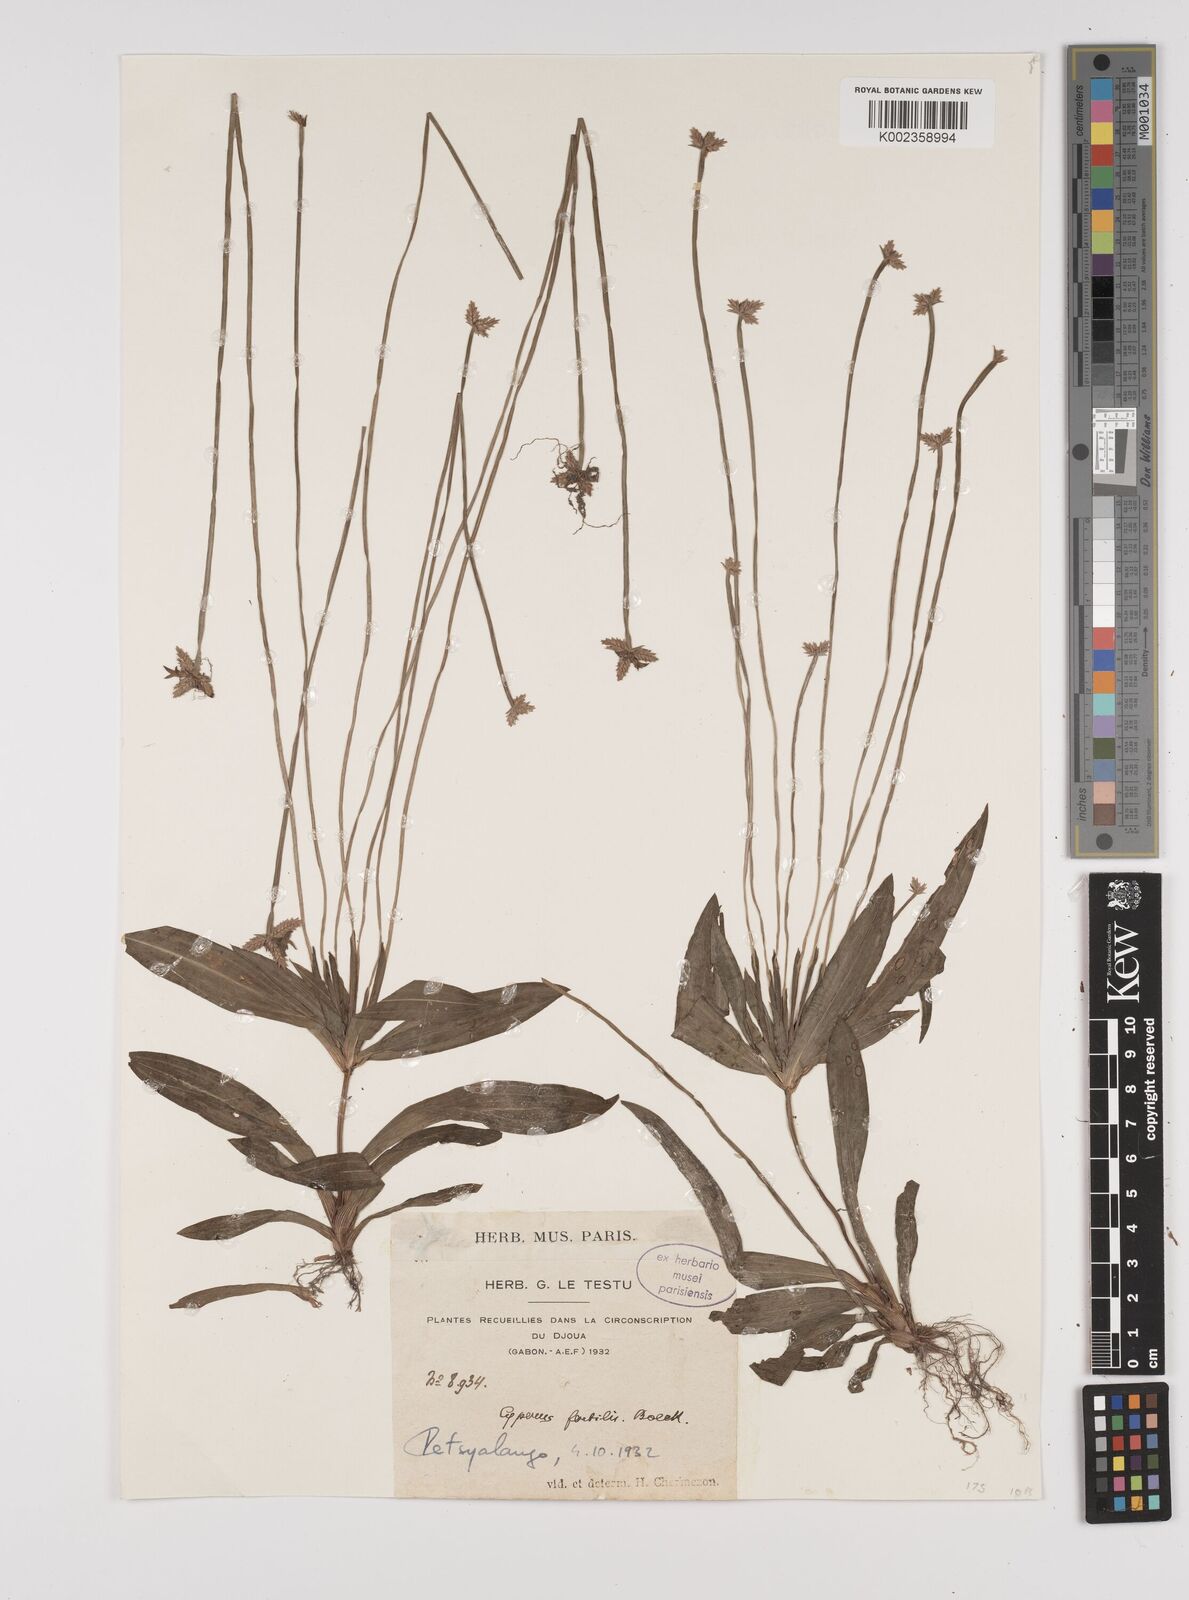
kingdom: Plantae
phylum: Tracheophyta
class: Liliopsida
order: Poales
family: Cyperaceae
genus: Cyperus
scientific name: Cyperus fertilis
